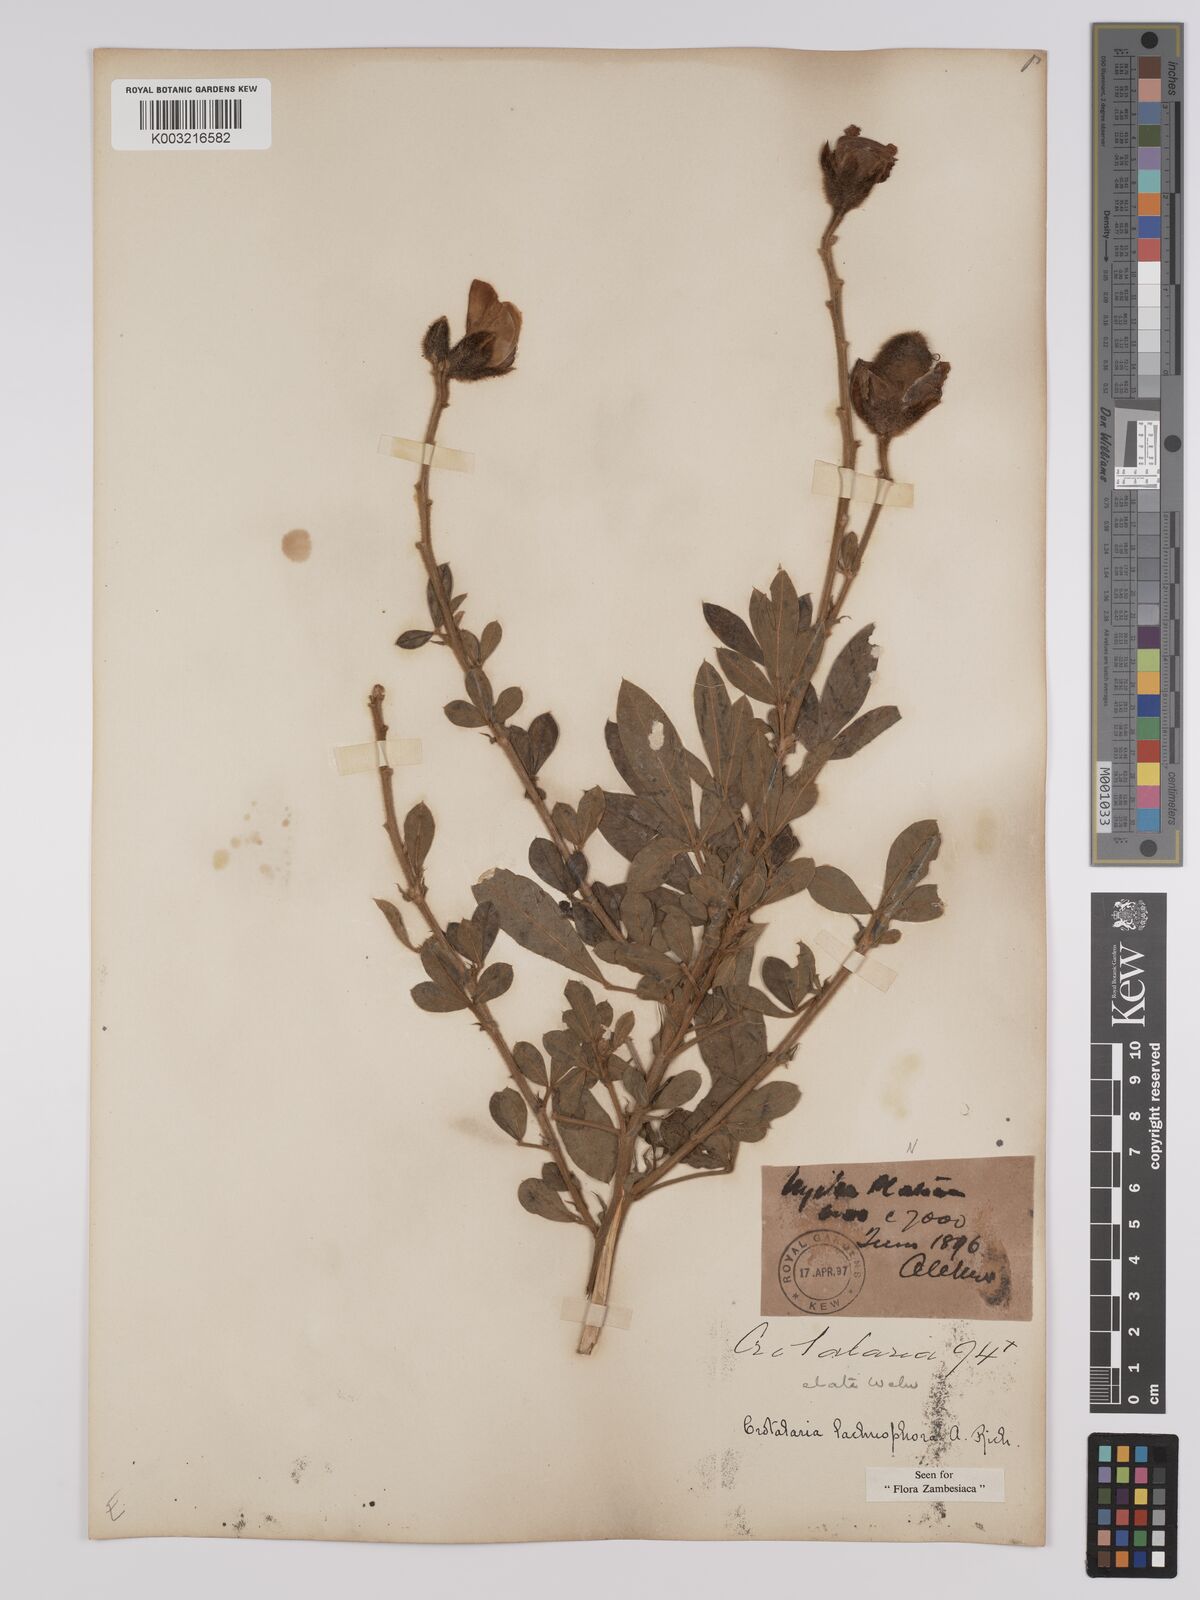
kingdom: Plantae
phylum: Tracheophyta
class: Magnoliopsida
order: Fabales
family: Fabaceae
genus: Crotalaria
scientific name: Crotalaria lachnophora
